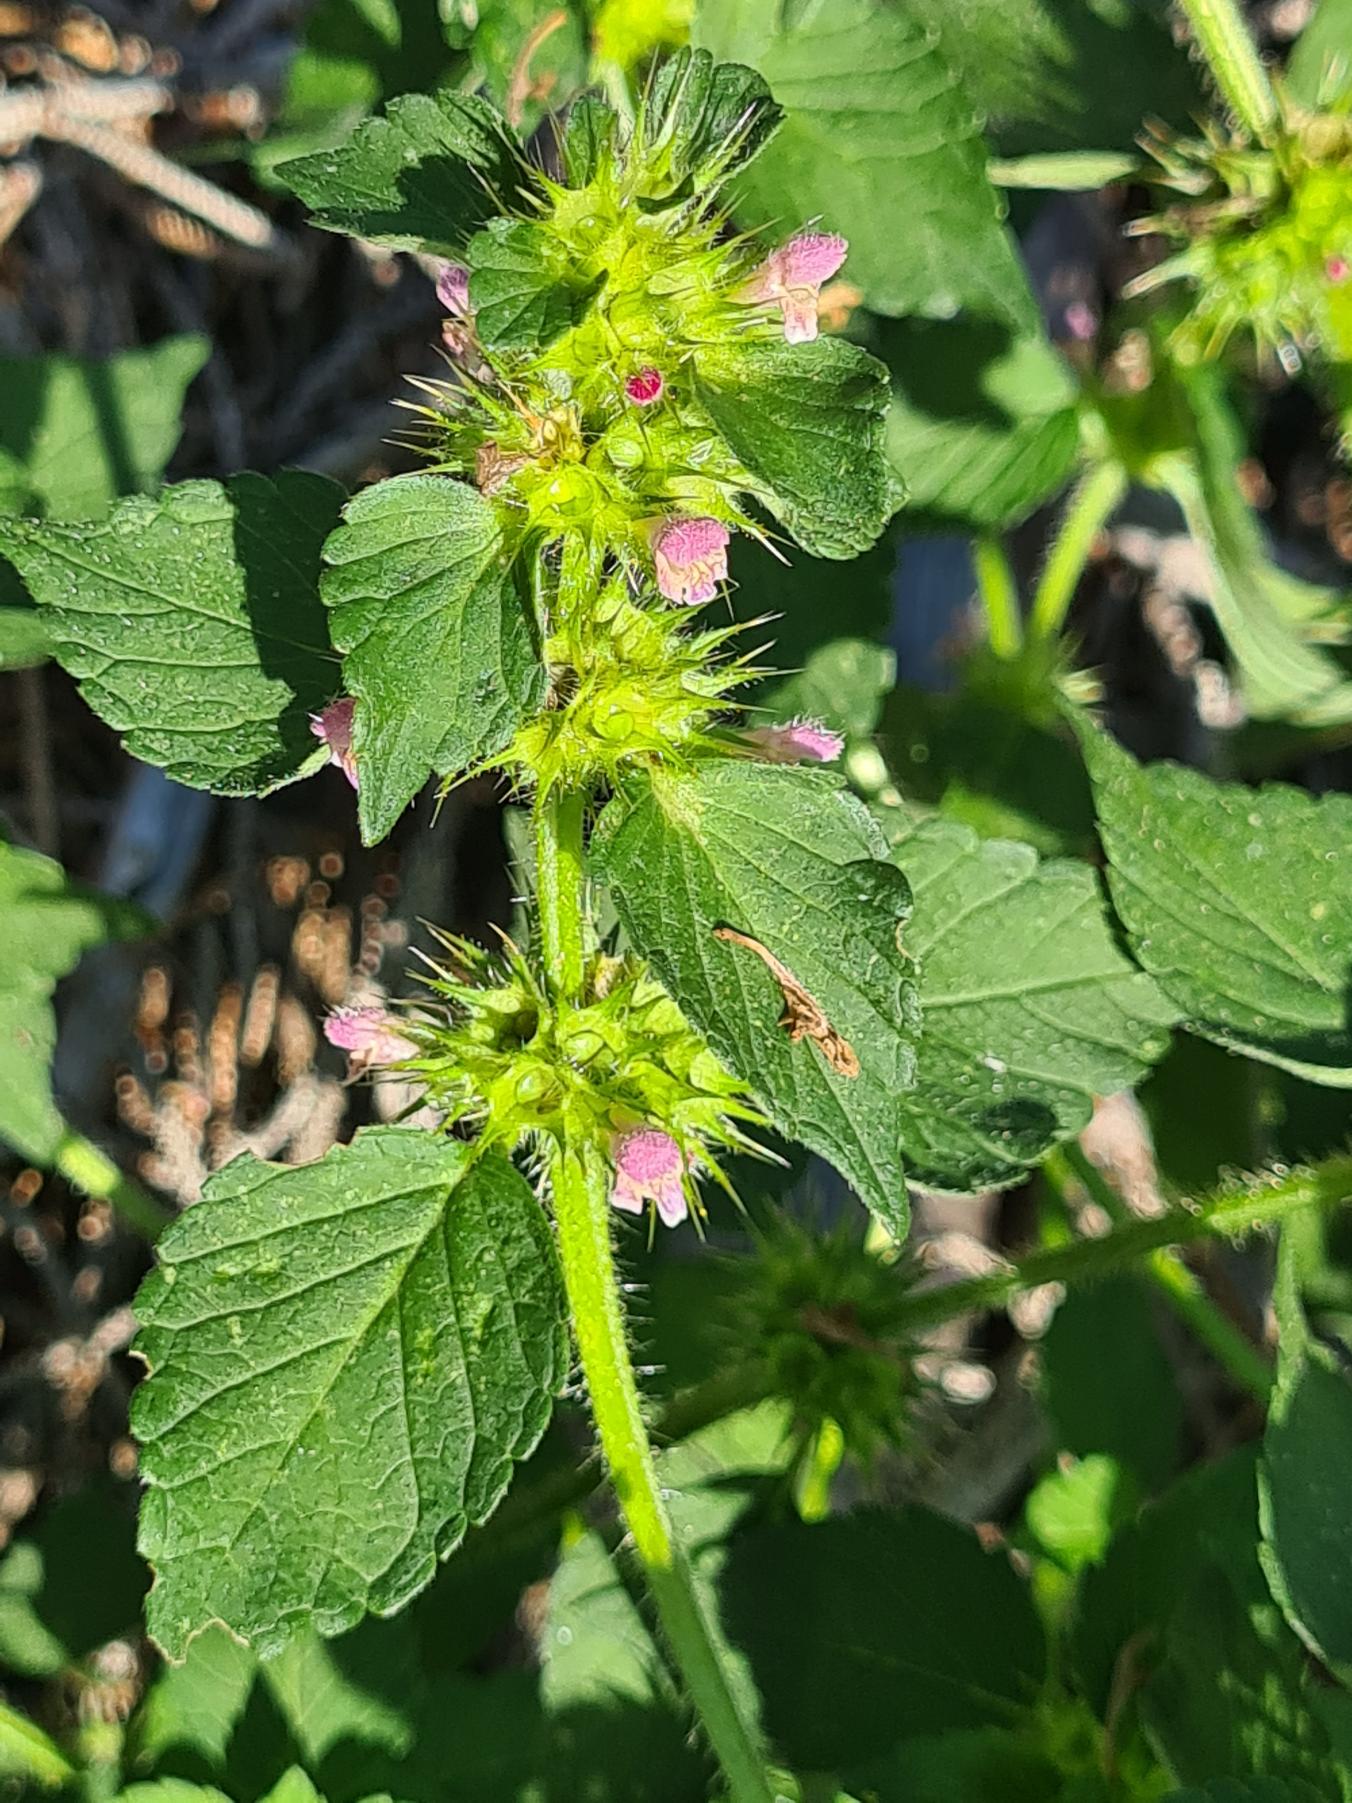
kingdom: Plantae
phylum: Tracheophyta
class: Magnoliopsida
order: Lamiales
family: Lamiaceae
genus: Galeopsis
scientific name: Galeopsis bifida
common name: Skov-hanekro
